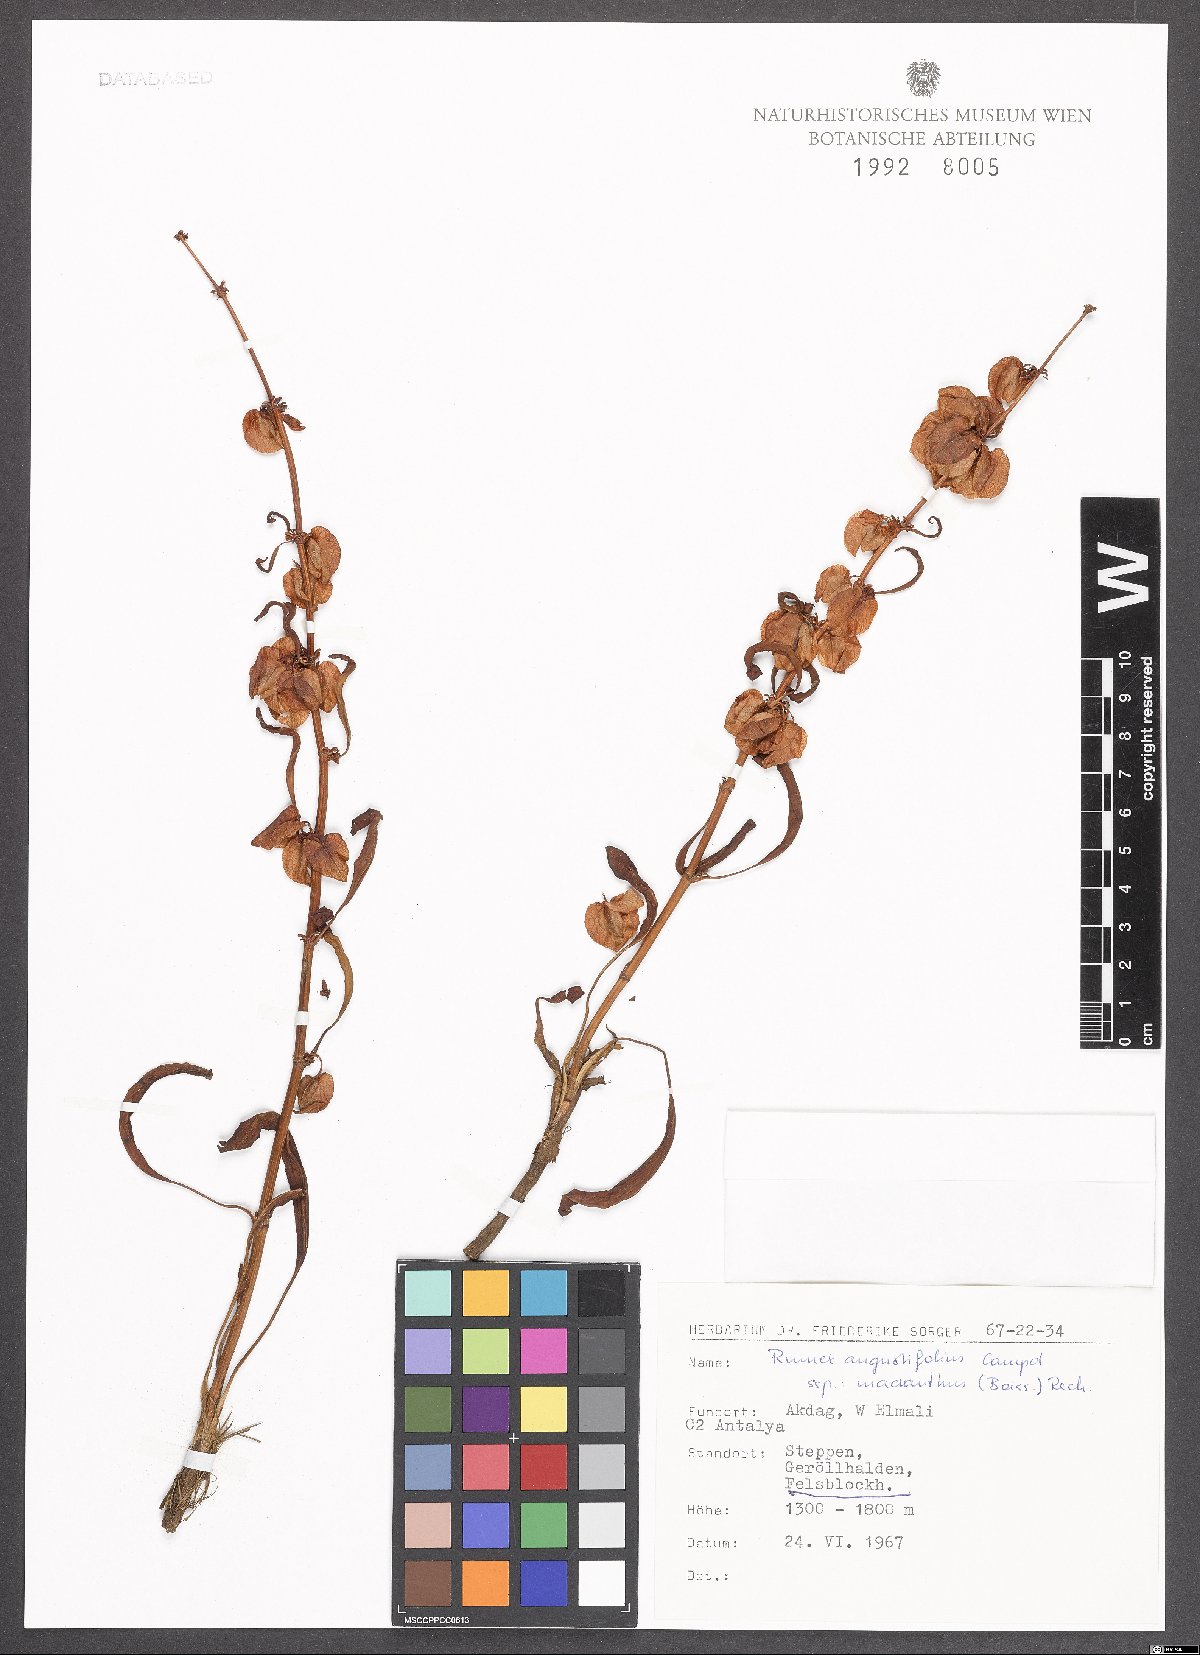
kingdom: Plantae
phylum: Tracheophyta
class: Magnoliopsida
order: Caryophyllales
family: Polygonaceae
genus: Rumex
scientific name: Rumex angustifolius
